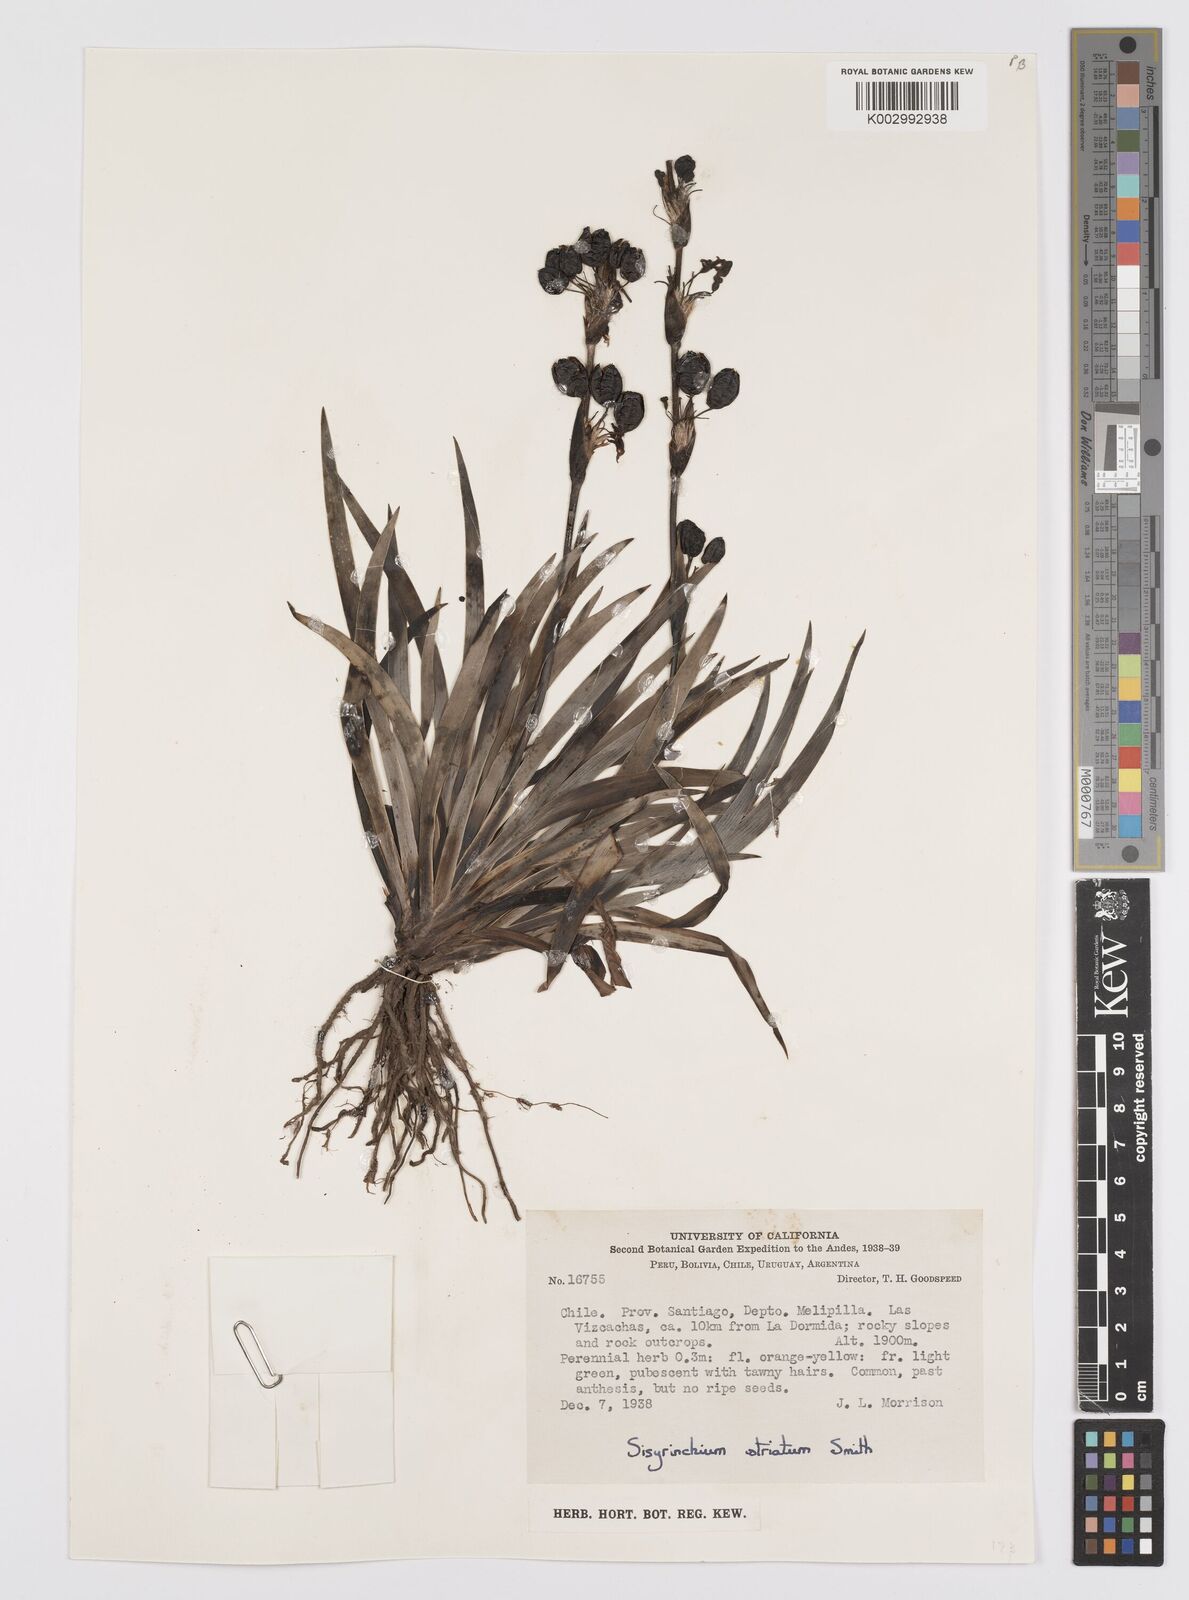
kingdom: Plantae
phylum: Tracheophyta
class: Liliopsida
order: Asparagales
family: Iridaceae
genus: Sisyrinchium
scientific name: Sisyrinchium striatum
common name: Pale yellow-eyed-grass
